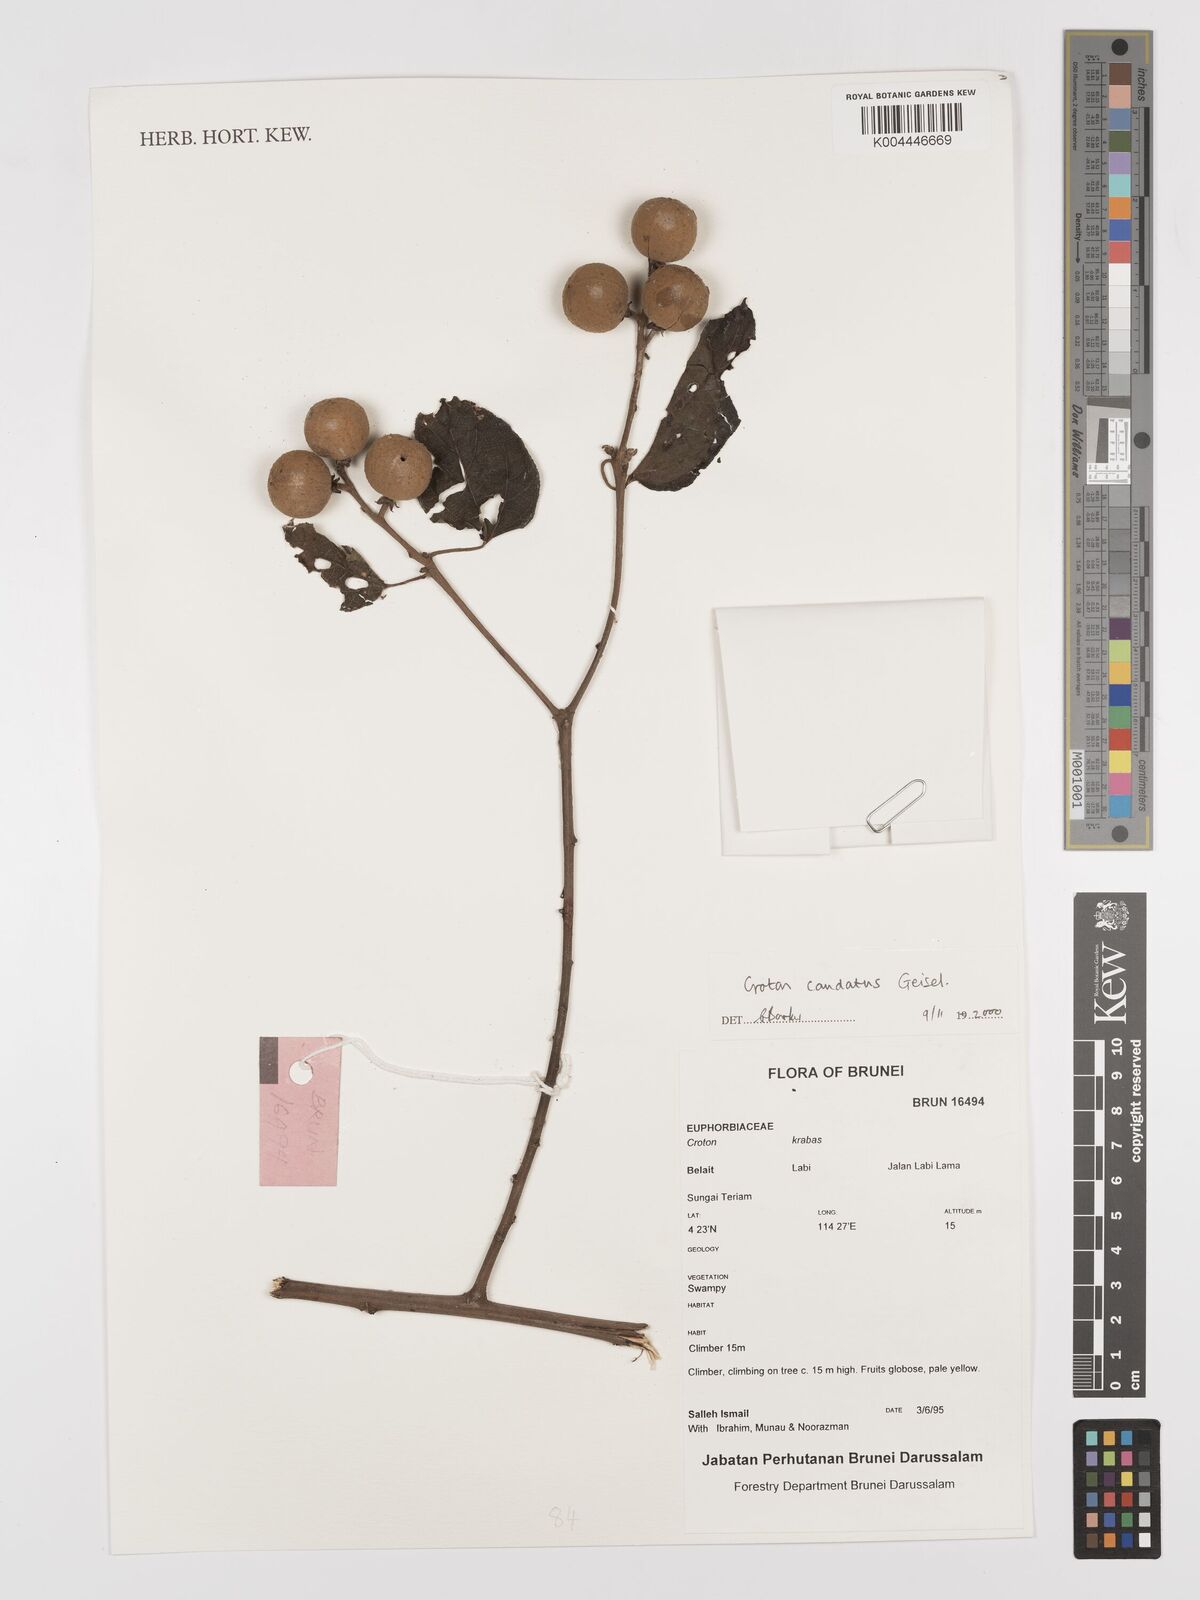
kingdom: Plantae
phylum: Tracheophyta
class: Magnoliopsida
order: Malpighiales
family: Euphorbiaceae
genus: Croton
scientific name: Croton caudatus
